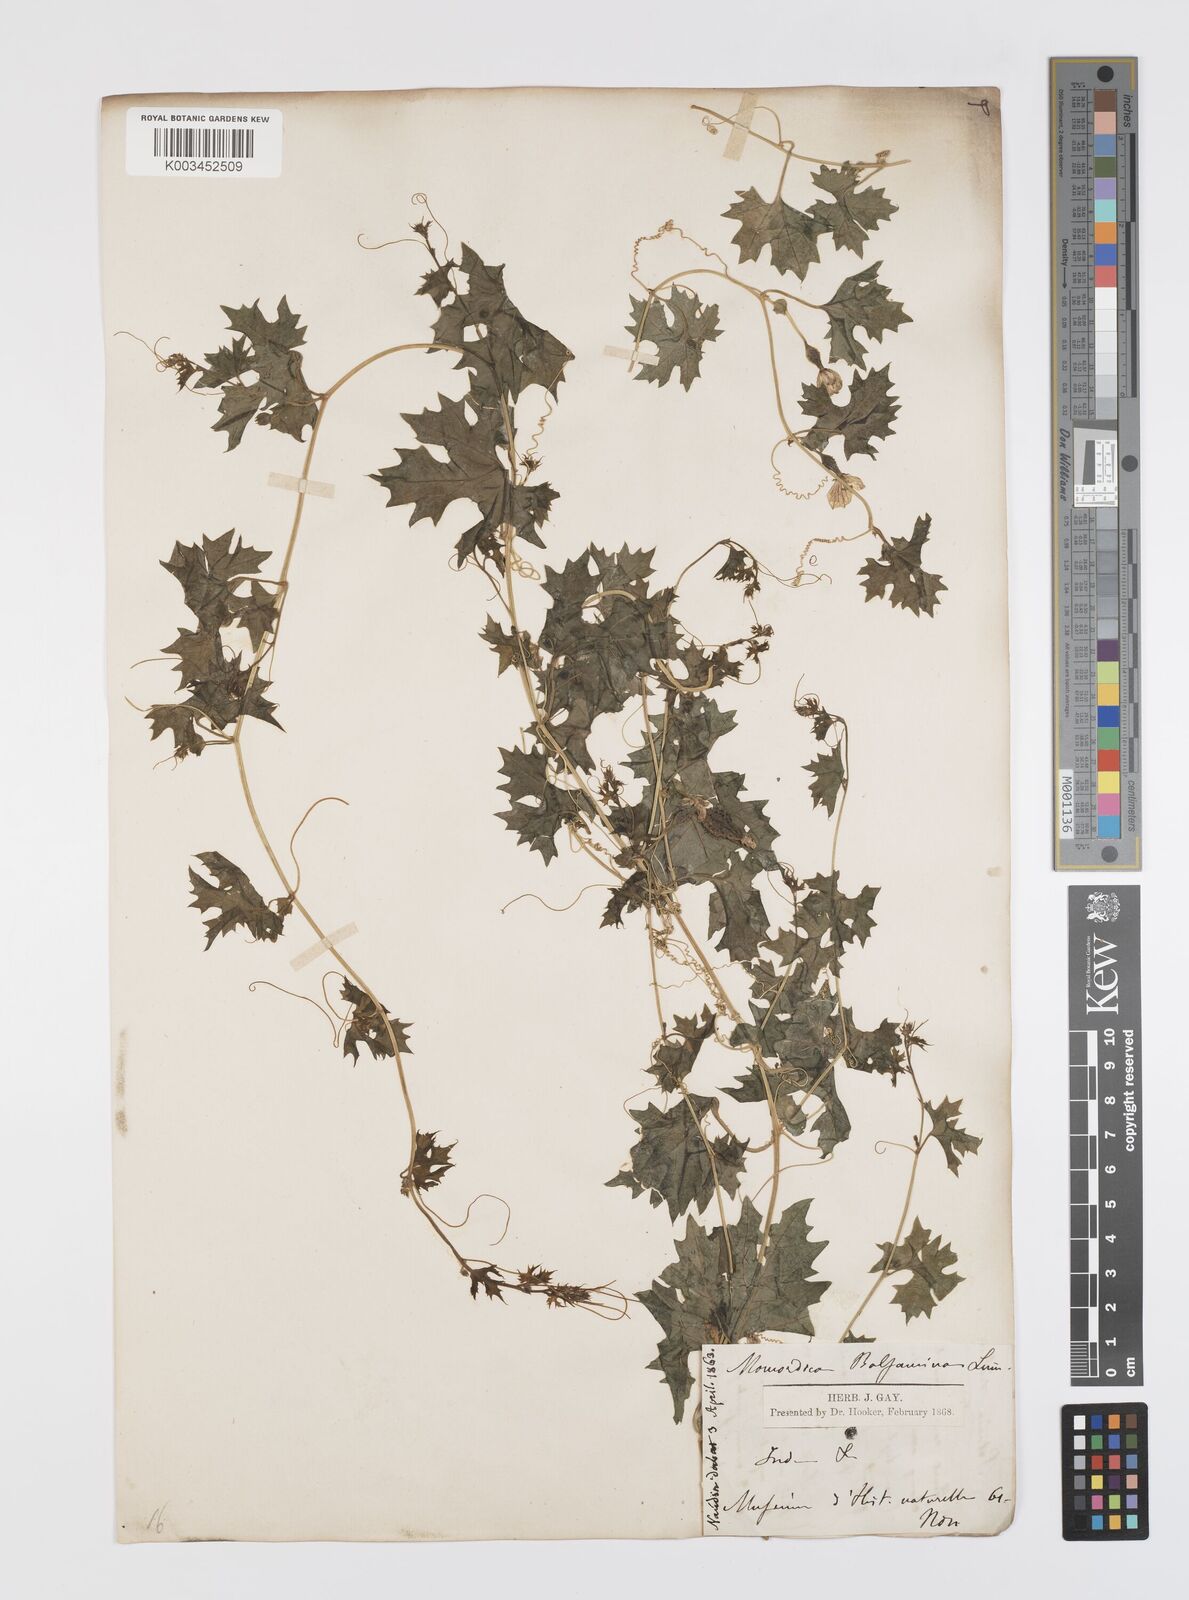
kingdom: Plantae
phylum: Tracheophyta
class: Magnoliopsida
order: Cucurbitales
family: Cucurbitaceae
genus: Momordica
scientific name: Momordica balsamina
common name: Southern balsampear
